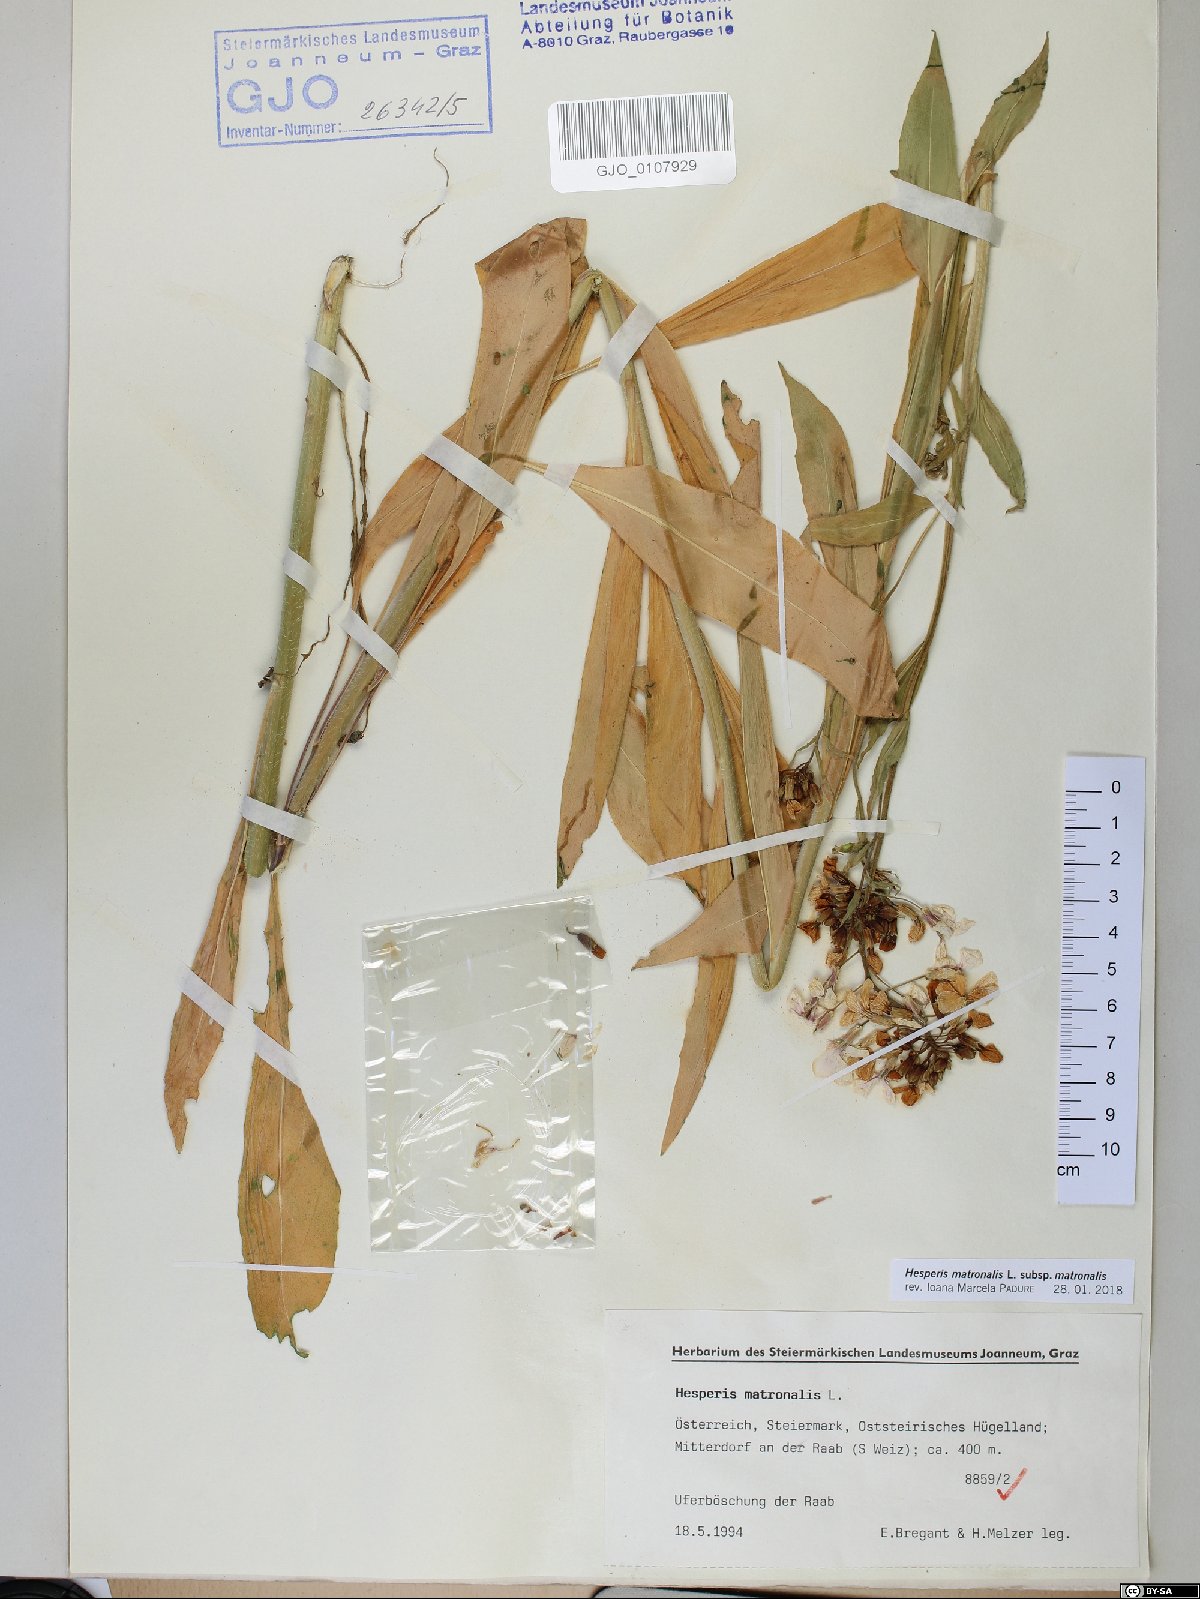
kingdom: Plantae
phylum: Tracheophyta
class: Magnoliopsida
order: Brassicales
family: Brassicaceae
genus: Hesperis
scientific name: Hesperis matronalis
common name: Dame's-violet
